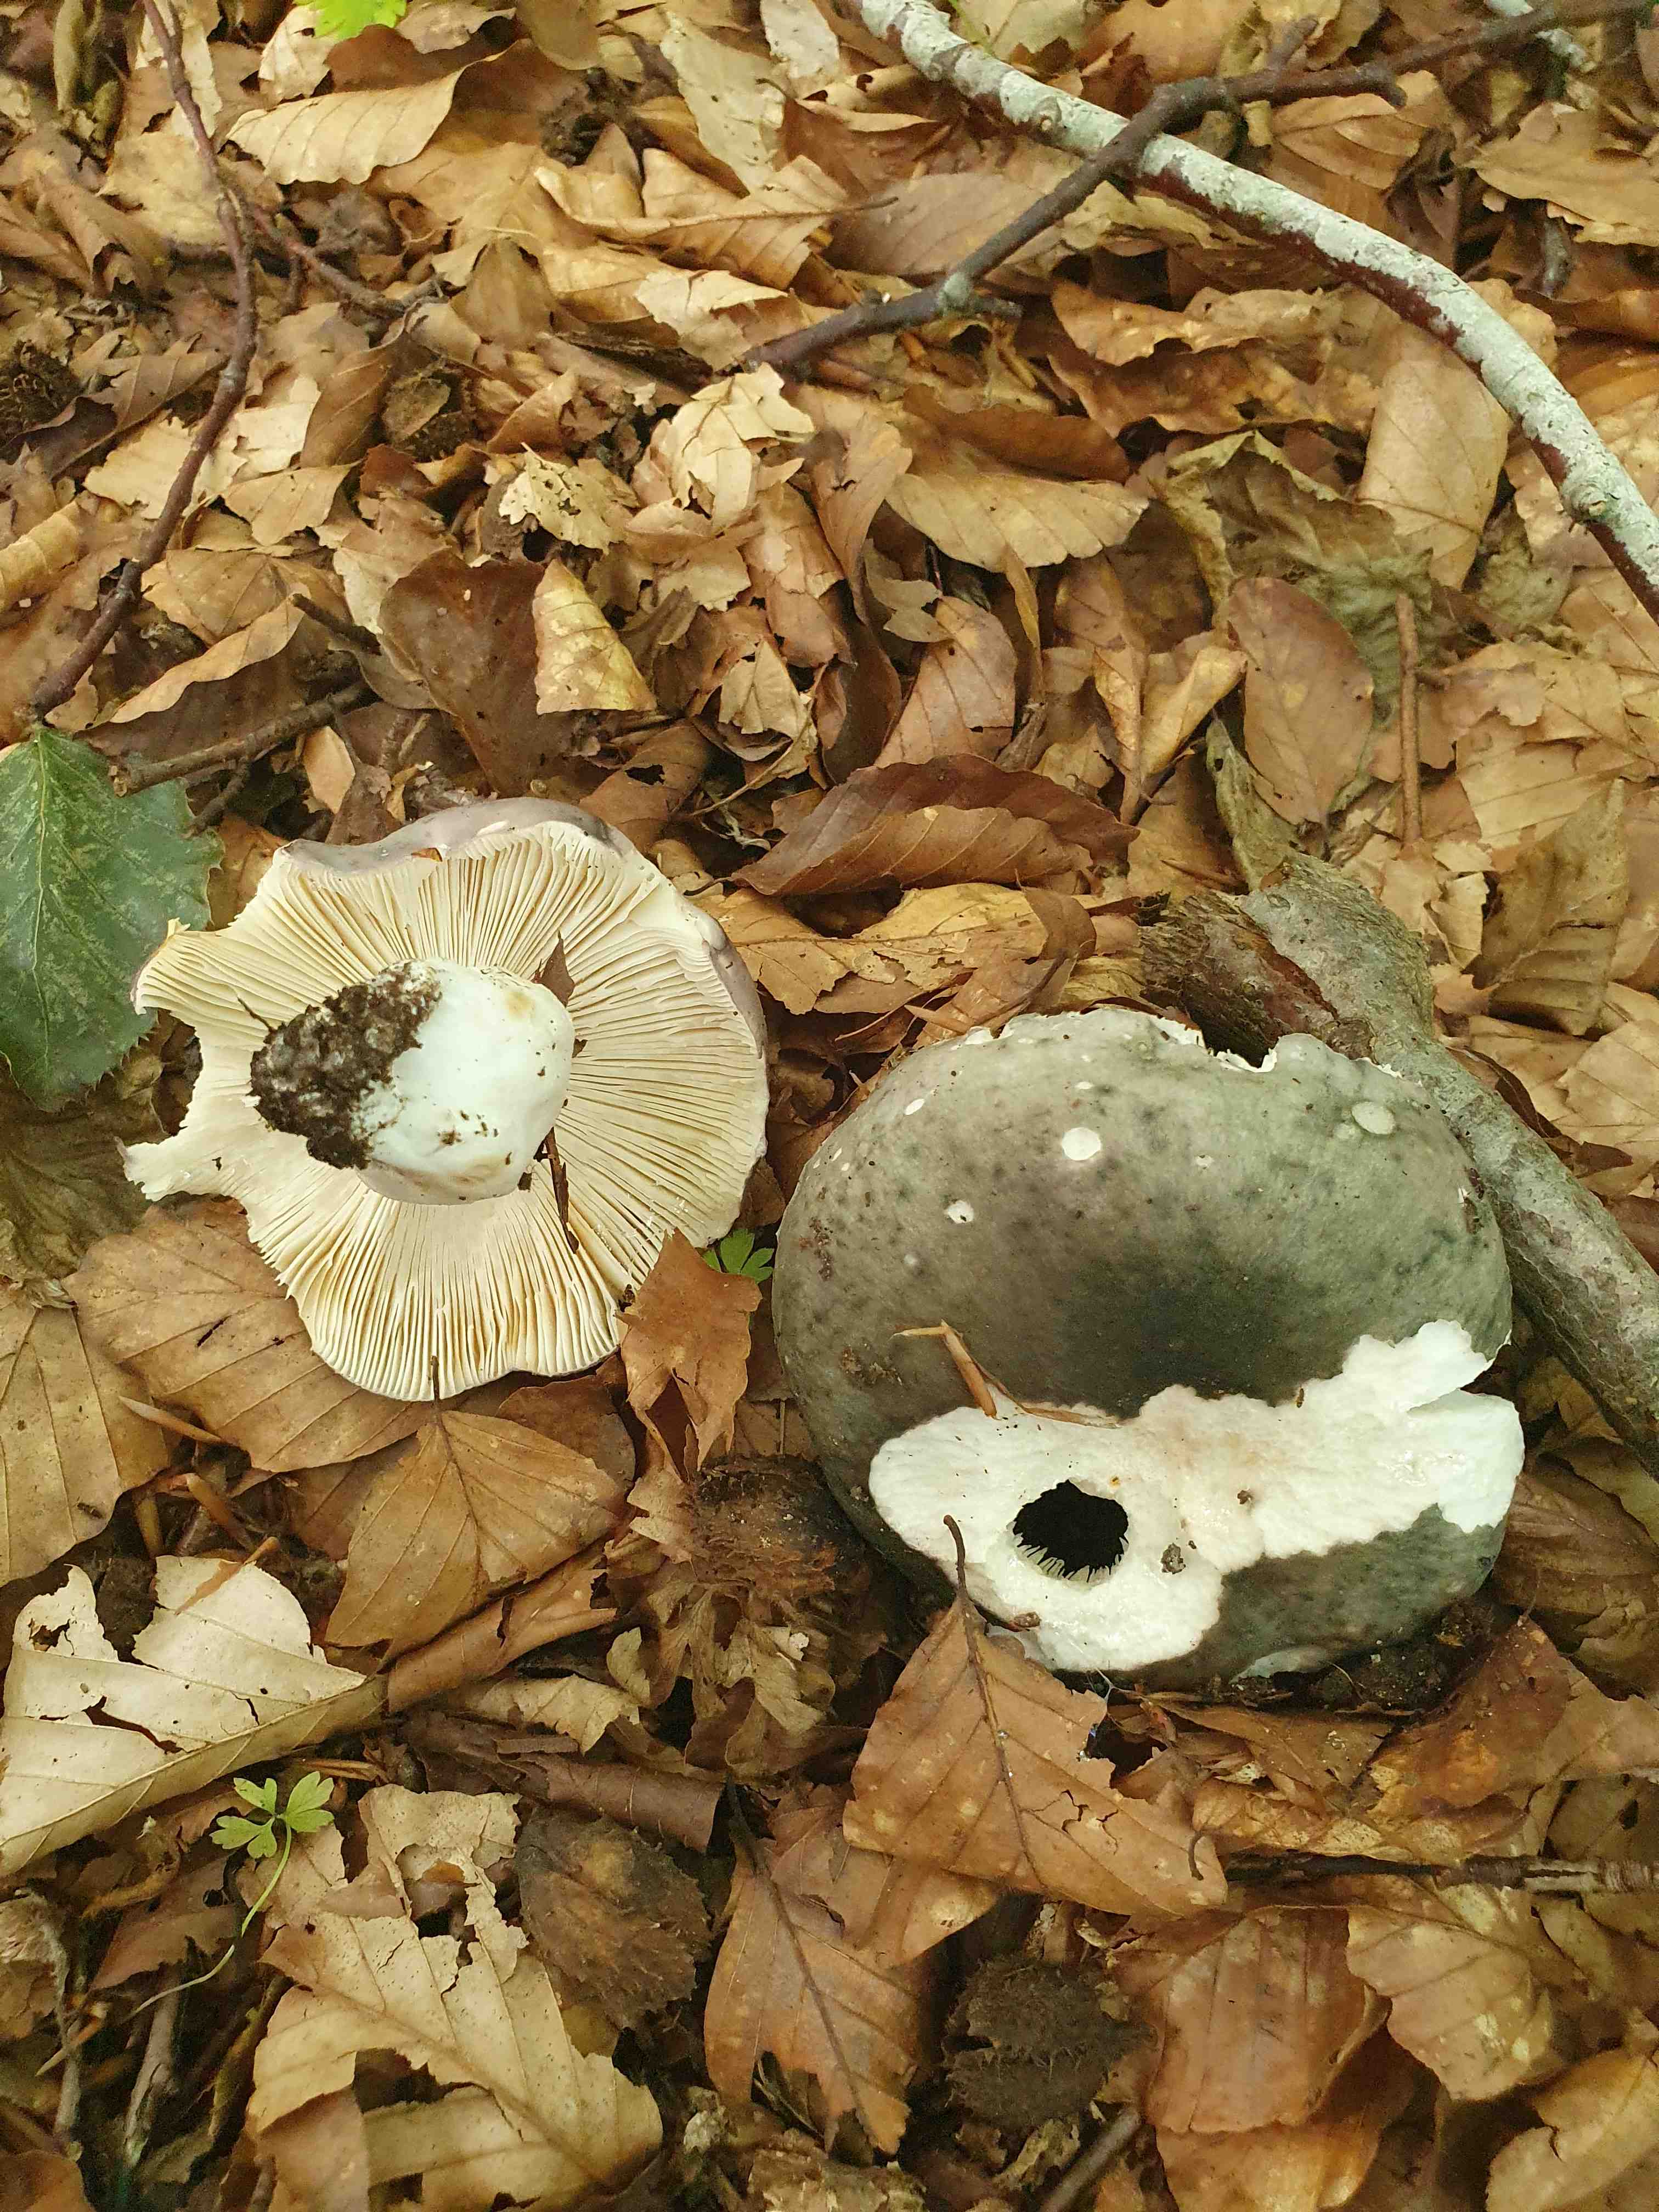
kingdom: Fungi
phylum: Basidiomycota
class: Agaricomycetes
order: Russulales
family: Russulaceae
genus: Russula
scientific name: Russula cyanoxantha
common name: broget skørhat
